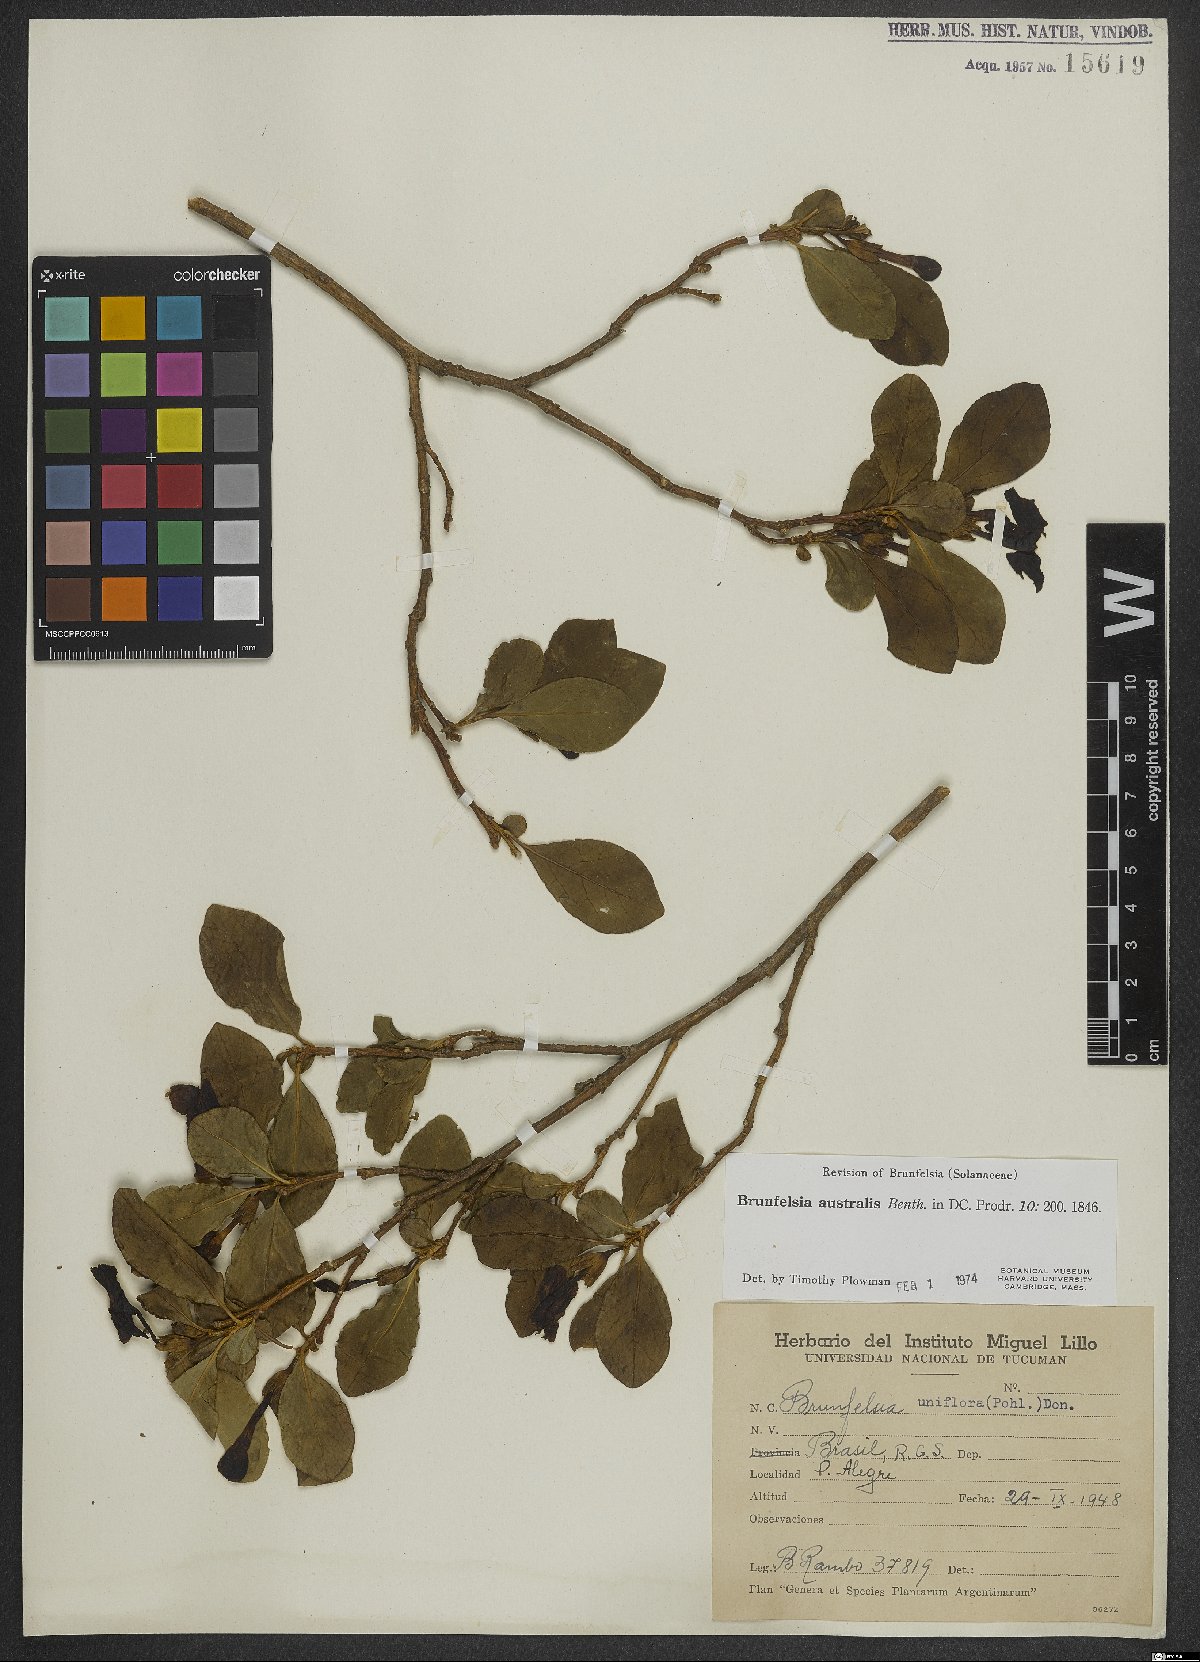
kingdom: Plantae
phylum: Tracheophyta
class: Magnoliopsida
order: Solanales
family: Solanaceae
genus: Brunfelsia
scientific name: Brunfelsia australis
